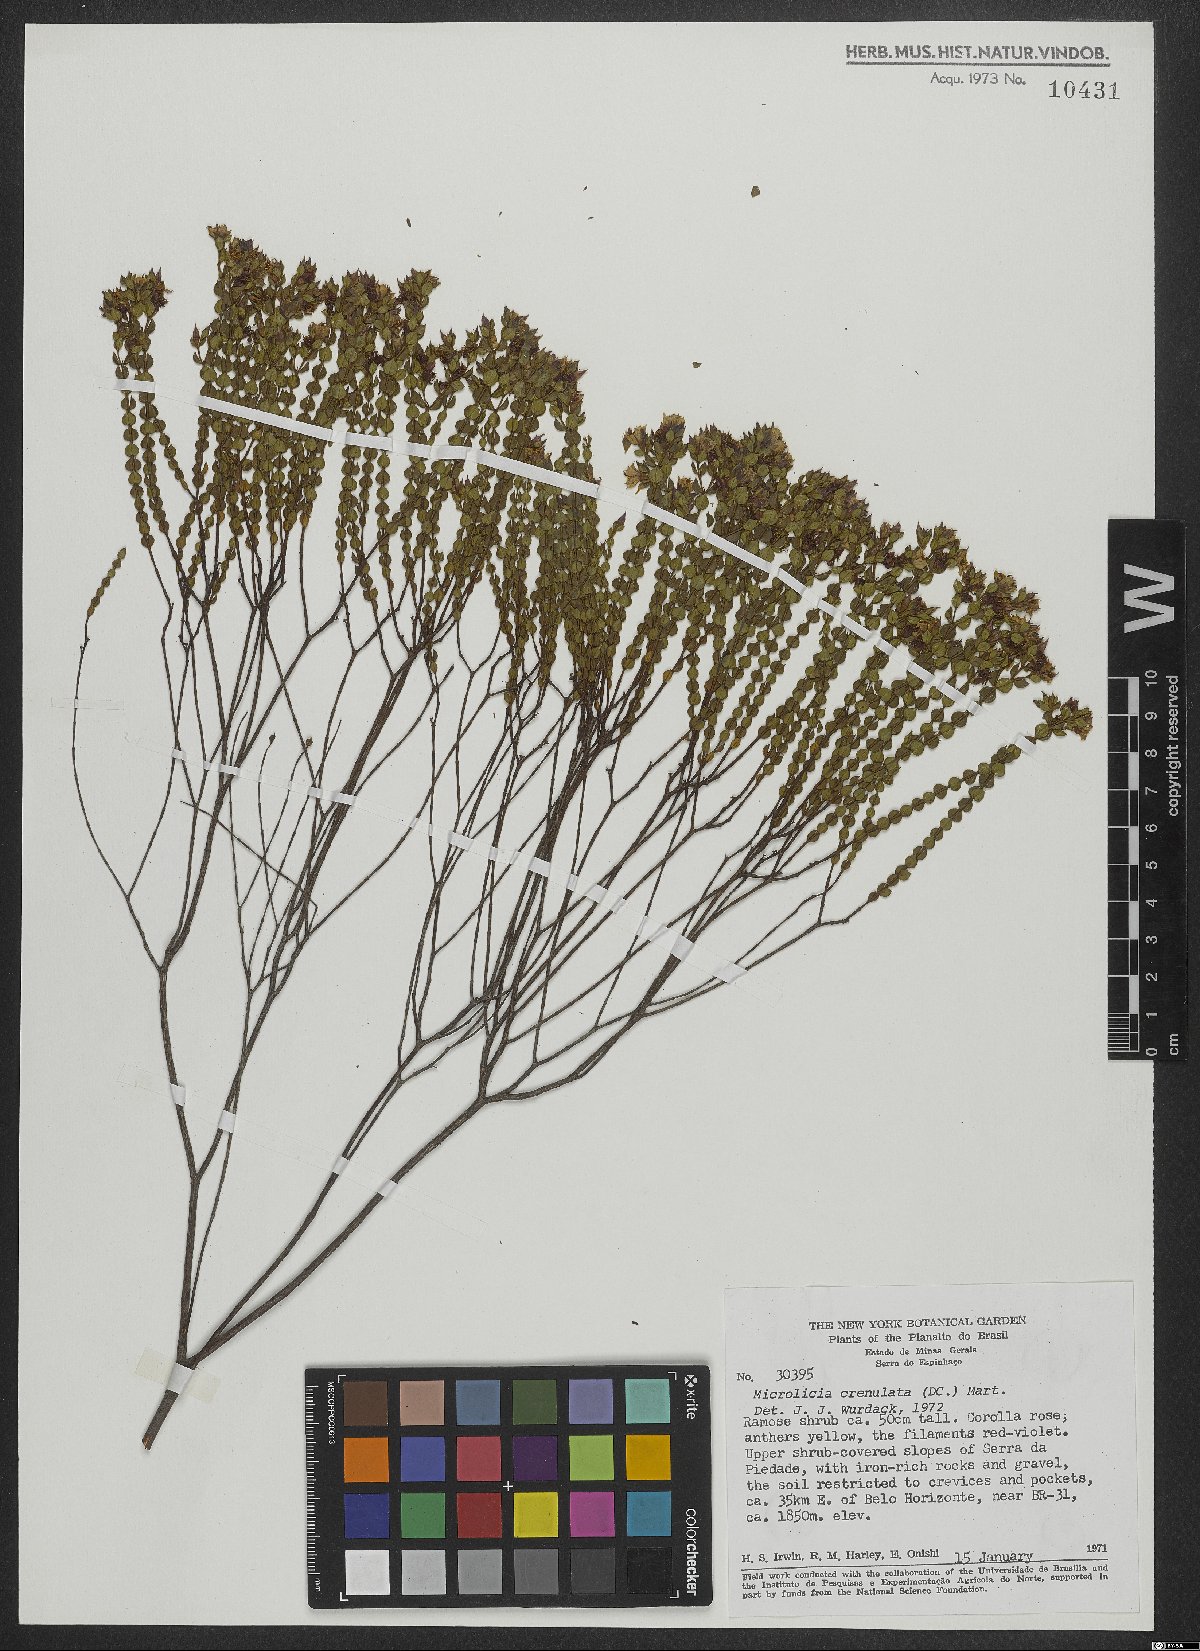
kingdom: Plantae
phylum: Tracheophyta
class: Magnoliopsida
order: Myrtales
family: Melastomataceae
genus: Microlicia
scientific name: Microlicia crenulata
